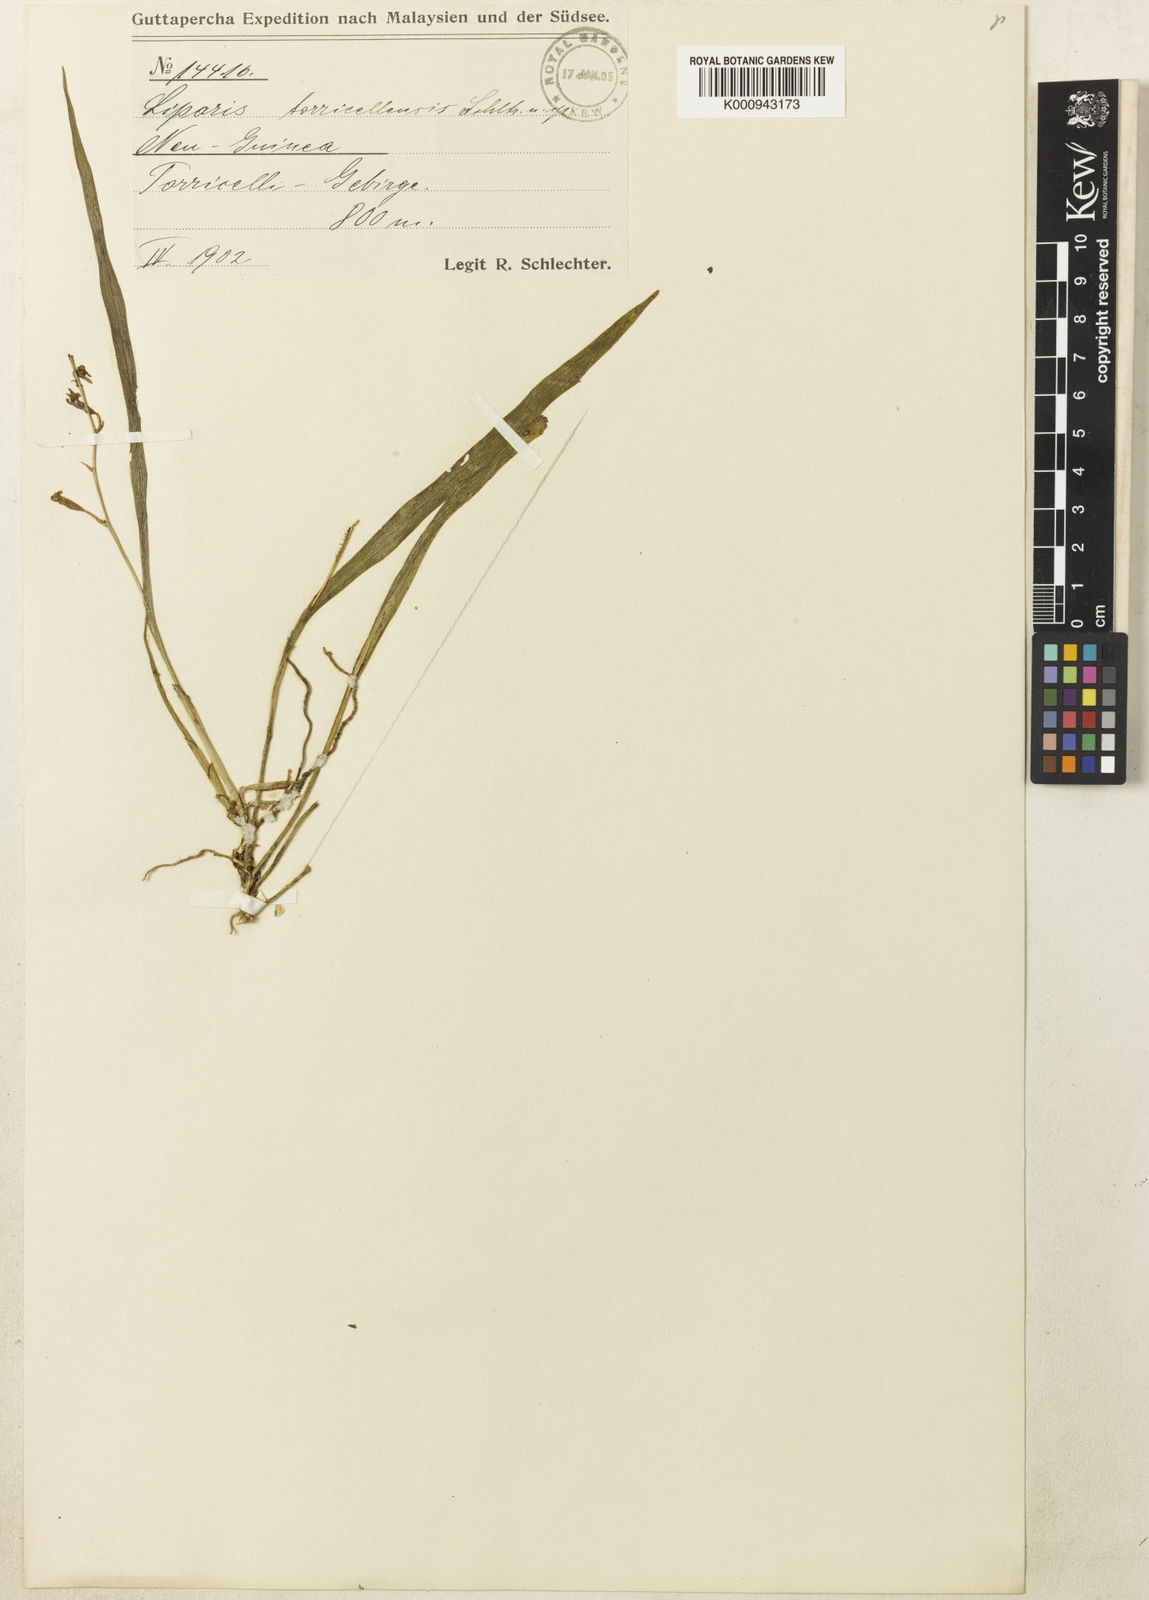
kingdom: Plantae
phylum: Tracheophyta
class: Liliopsida
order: Asparagales
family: Orchidaceae
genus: Liparis
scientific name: Liparis torricellensis
